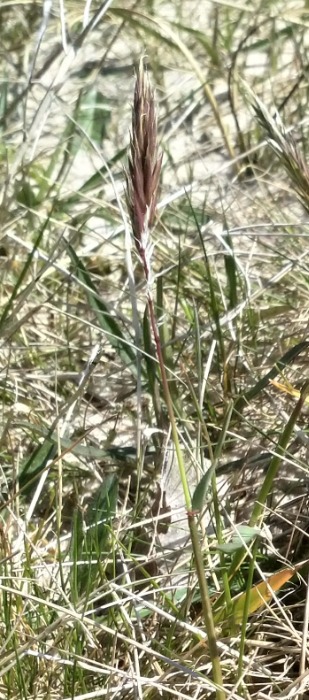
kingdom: Plantae
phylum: Tracheophyta
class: Liliopsida
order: Poales
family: Poaceae
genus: Anthoxanthum
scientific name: Anthoxanthum odoratum
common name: Vellugtende gulaks
